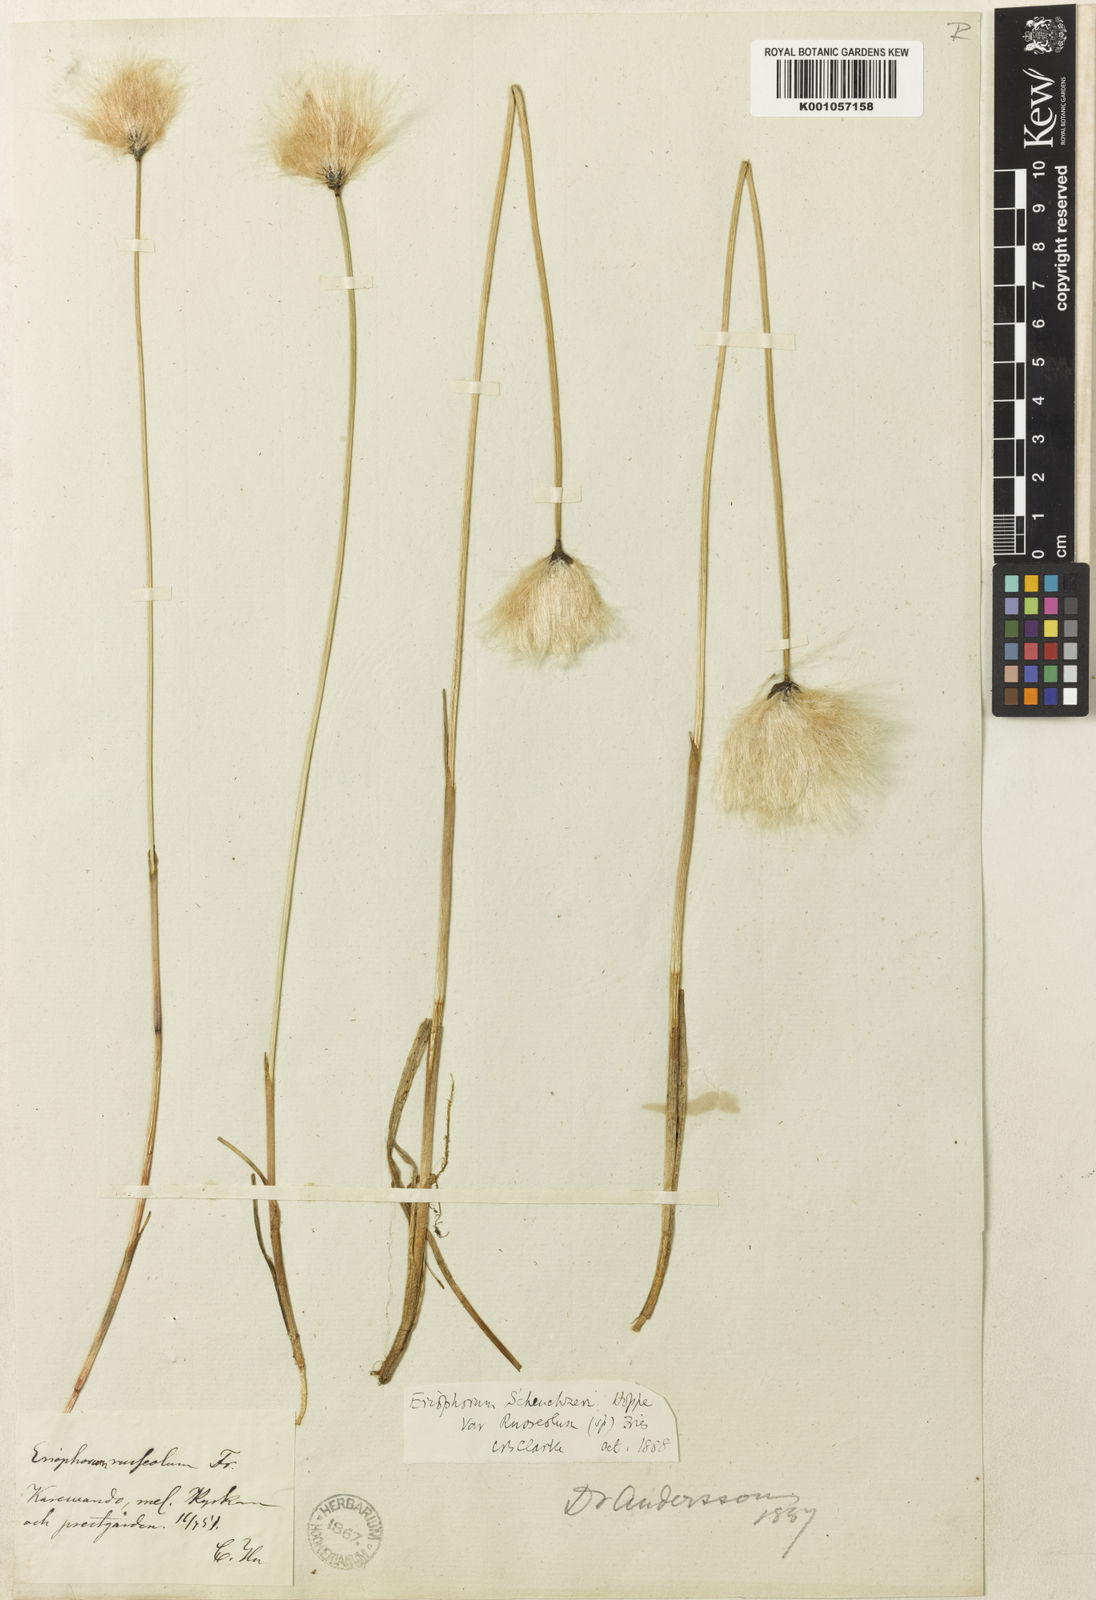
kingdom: Plantae
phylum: Tracheophyta
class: Liliopsida
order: Poales
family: Cyperaceae
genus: Eriophorum
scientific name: Eriophorum scheuchzeri
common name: Scheuchzer's cottongrass
